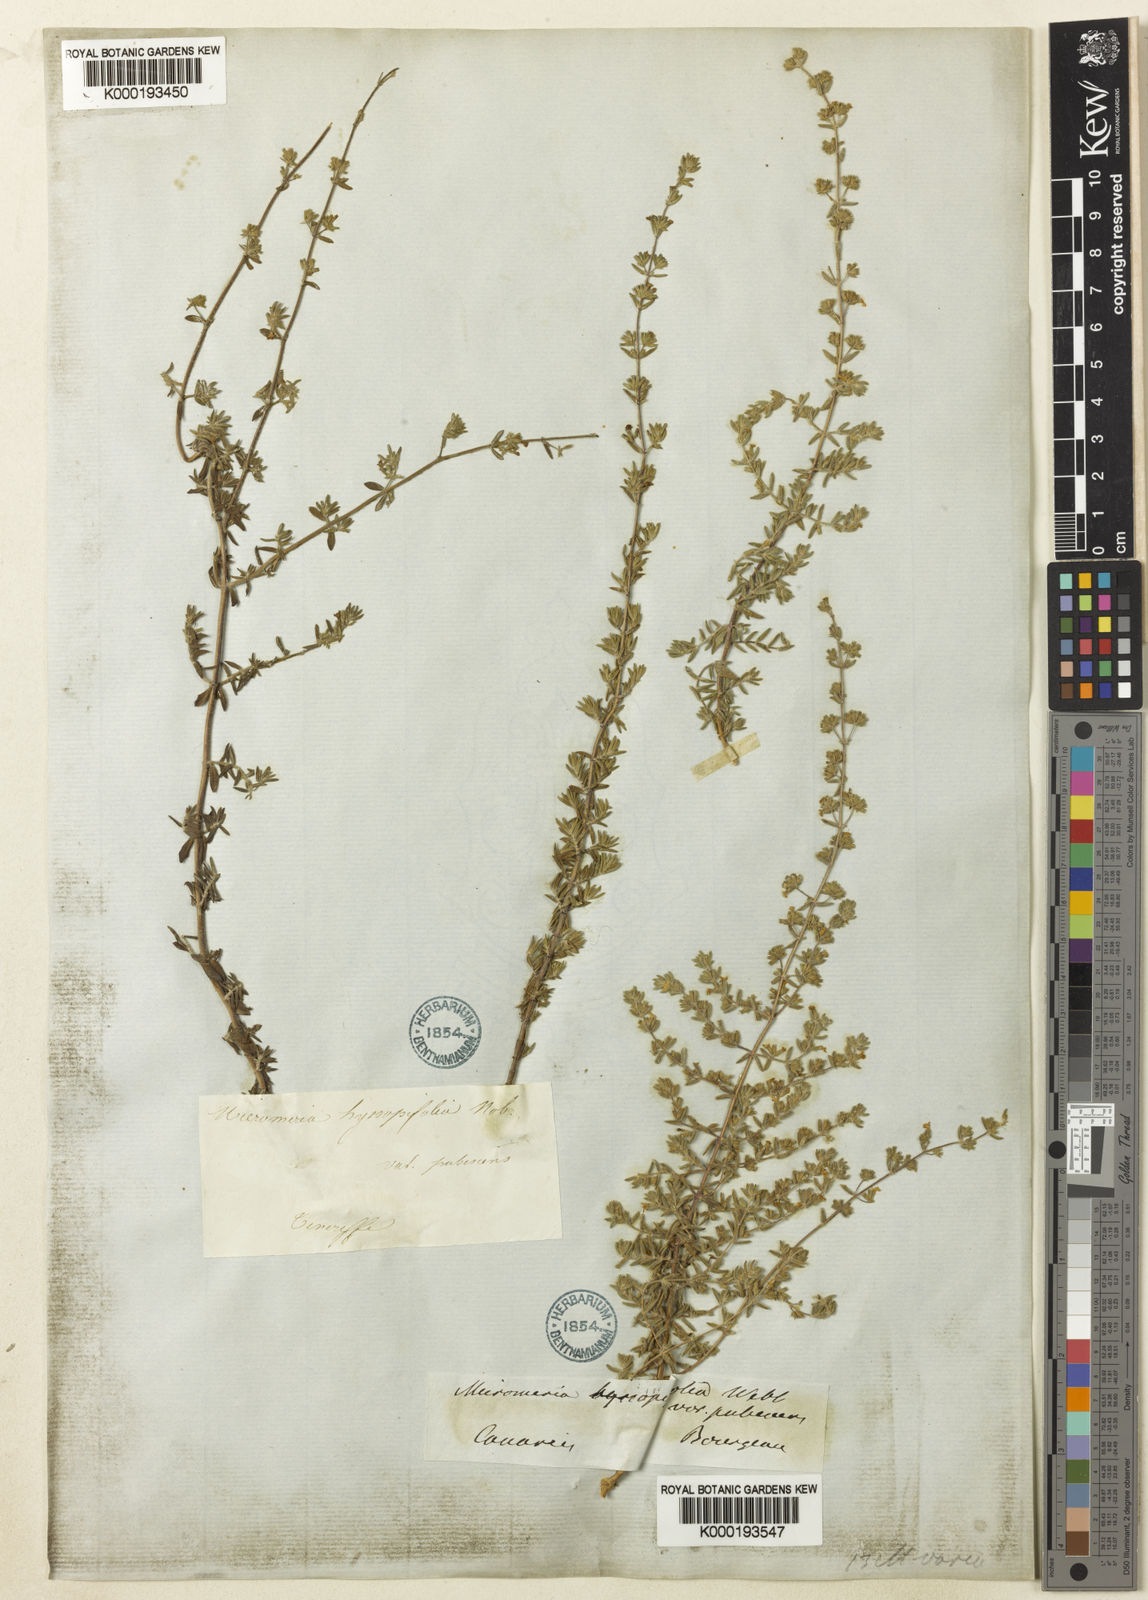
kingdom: Plantae
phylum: Tracheophyta
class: Magnoliopsida
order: Lamiales
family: Lamiaceae
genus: Micromeria
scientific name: Micromeria ericifolia
